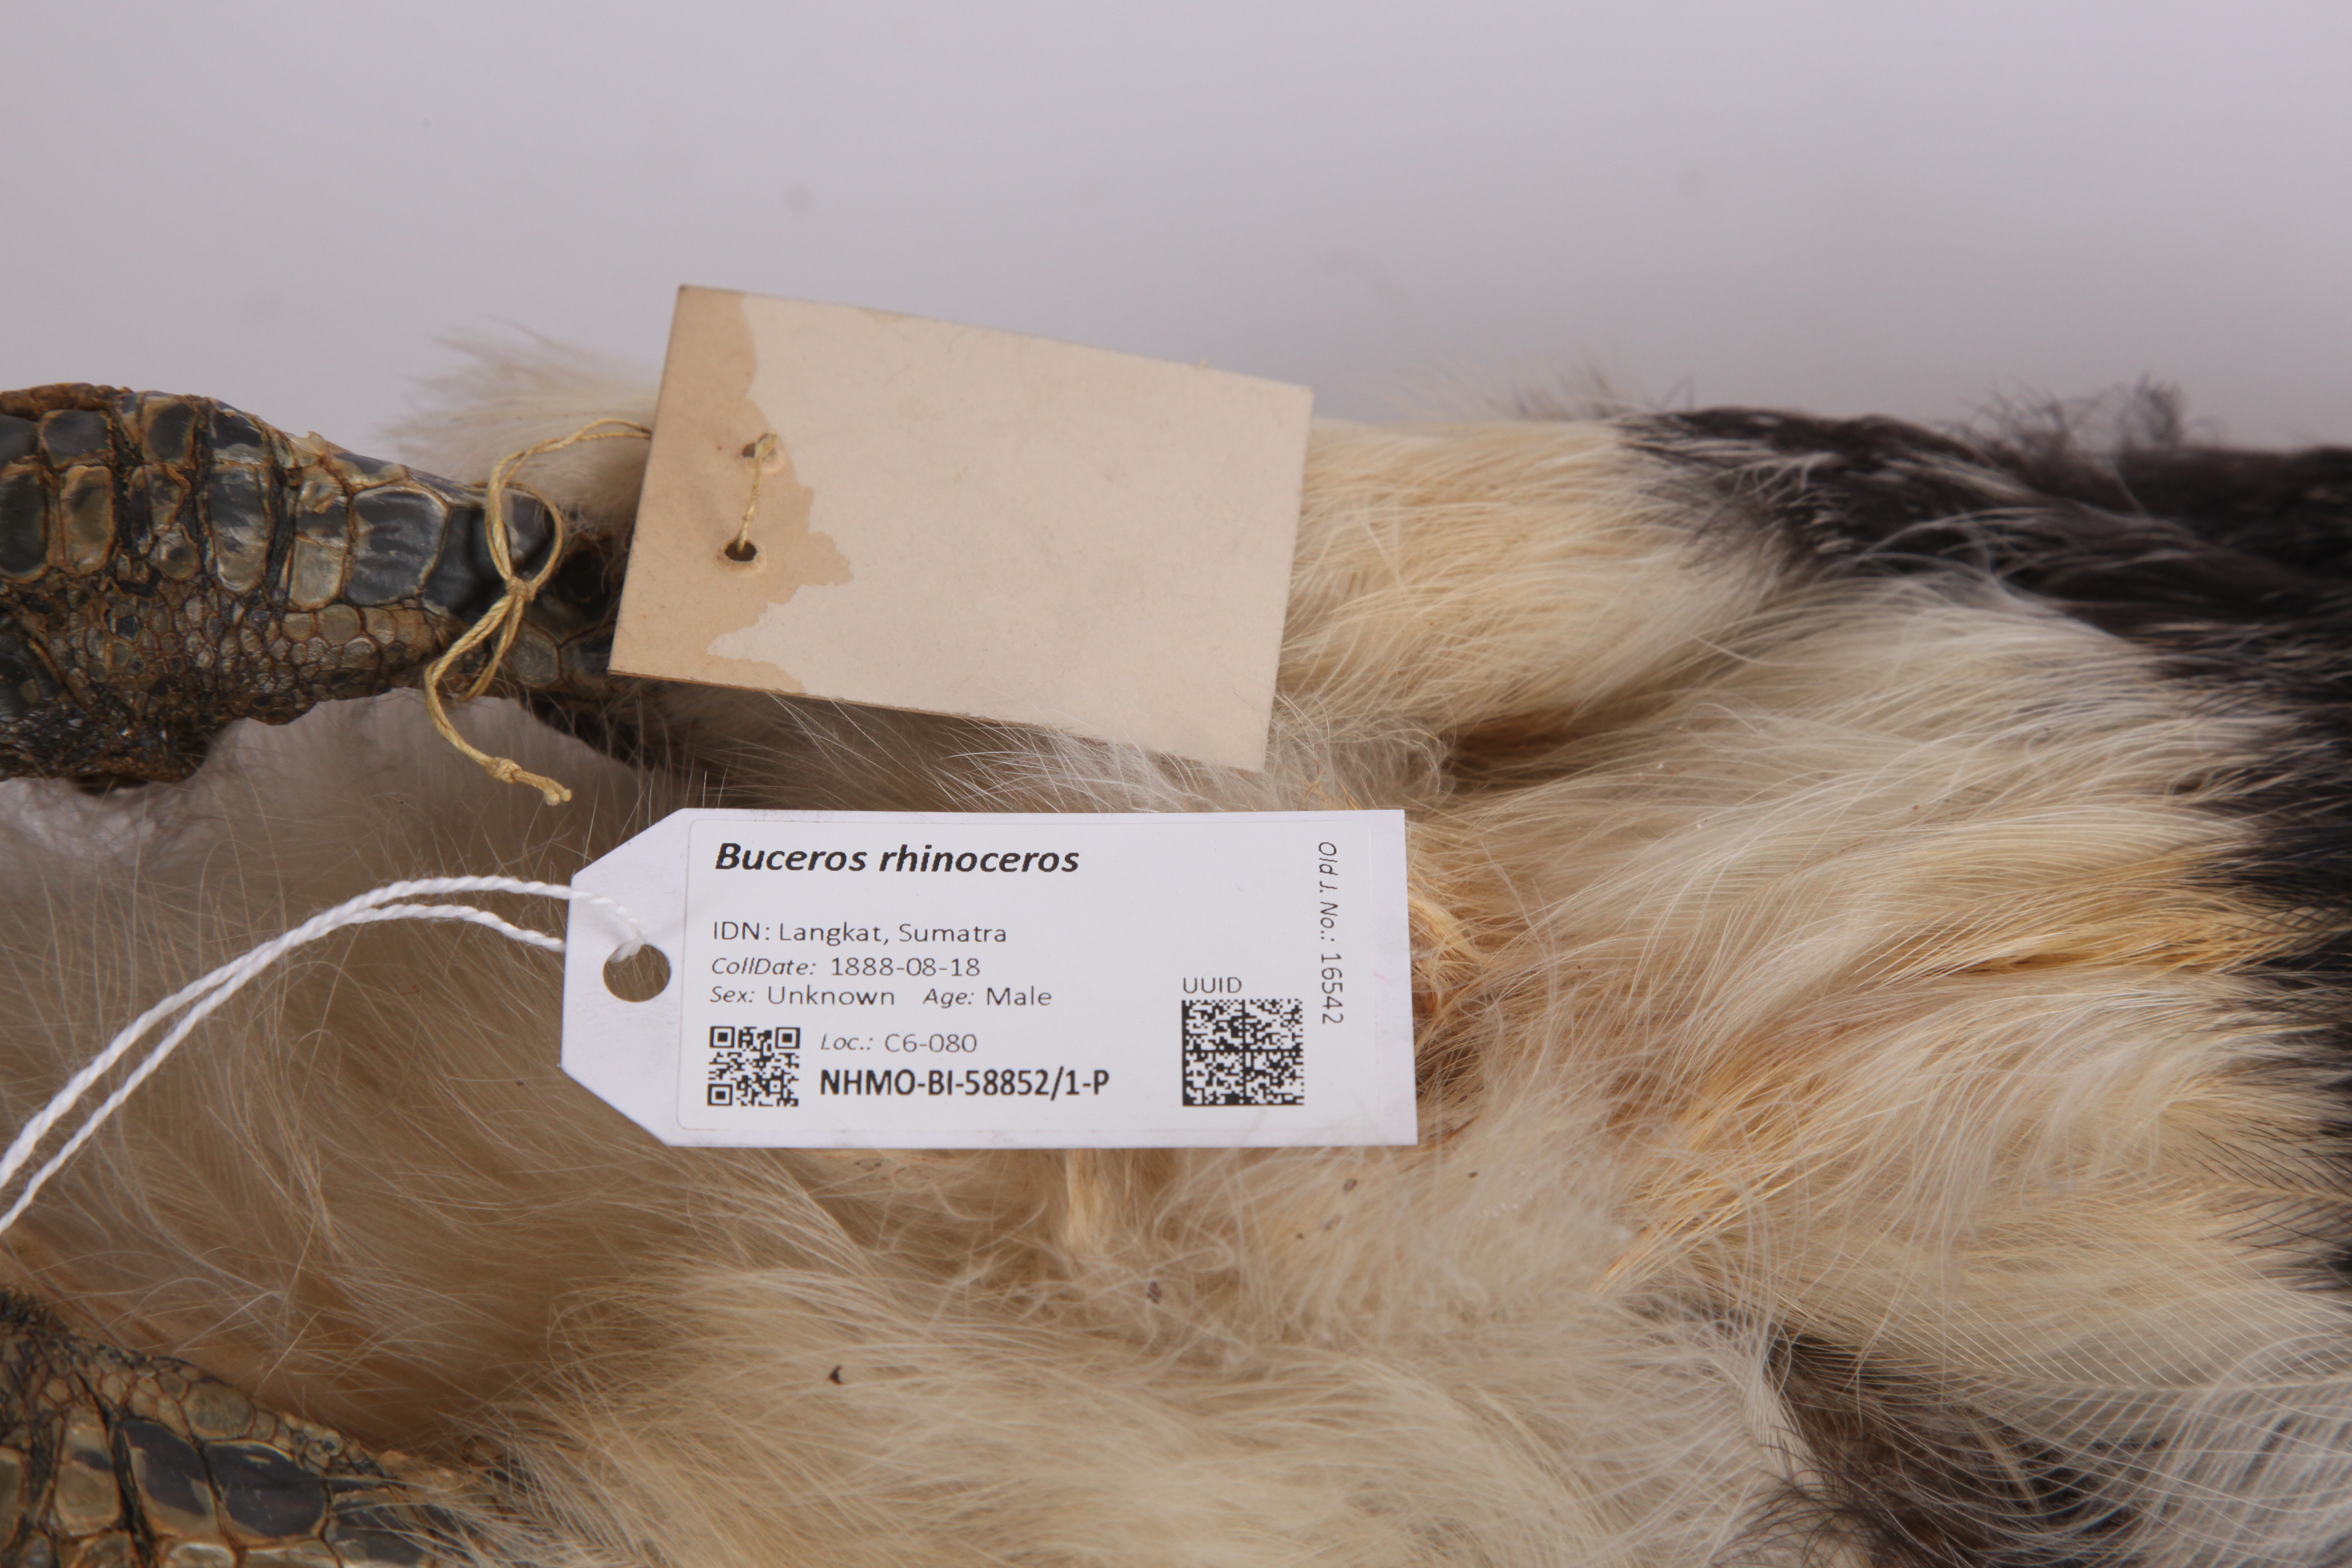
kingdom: Animalia
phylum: Chordata
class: Aves
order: Bucerotiformes
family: Bucerotidae
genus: Buceros
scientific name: Buceros rhinoceros
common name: Rhinoceros hornbill
